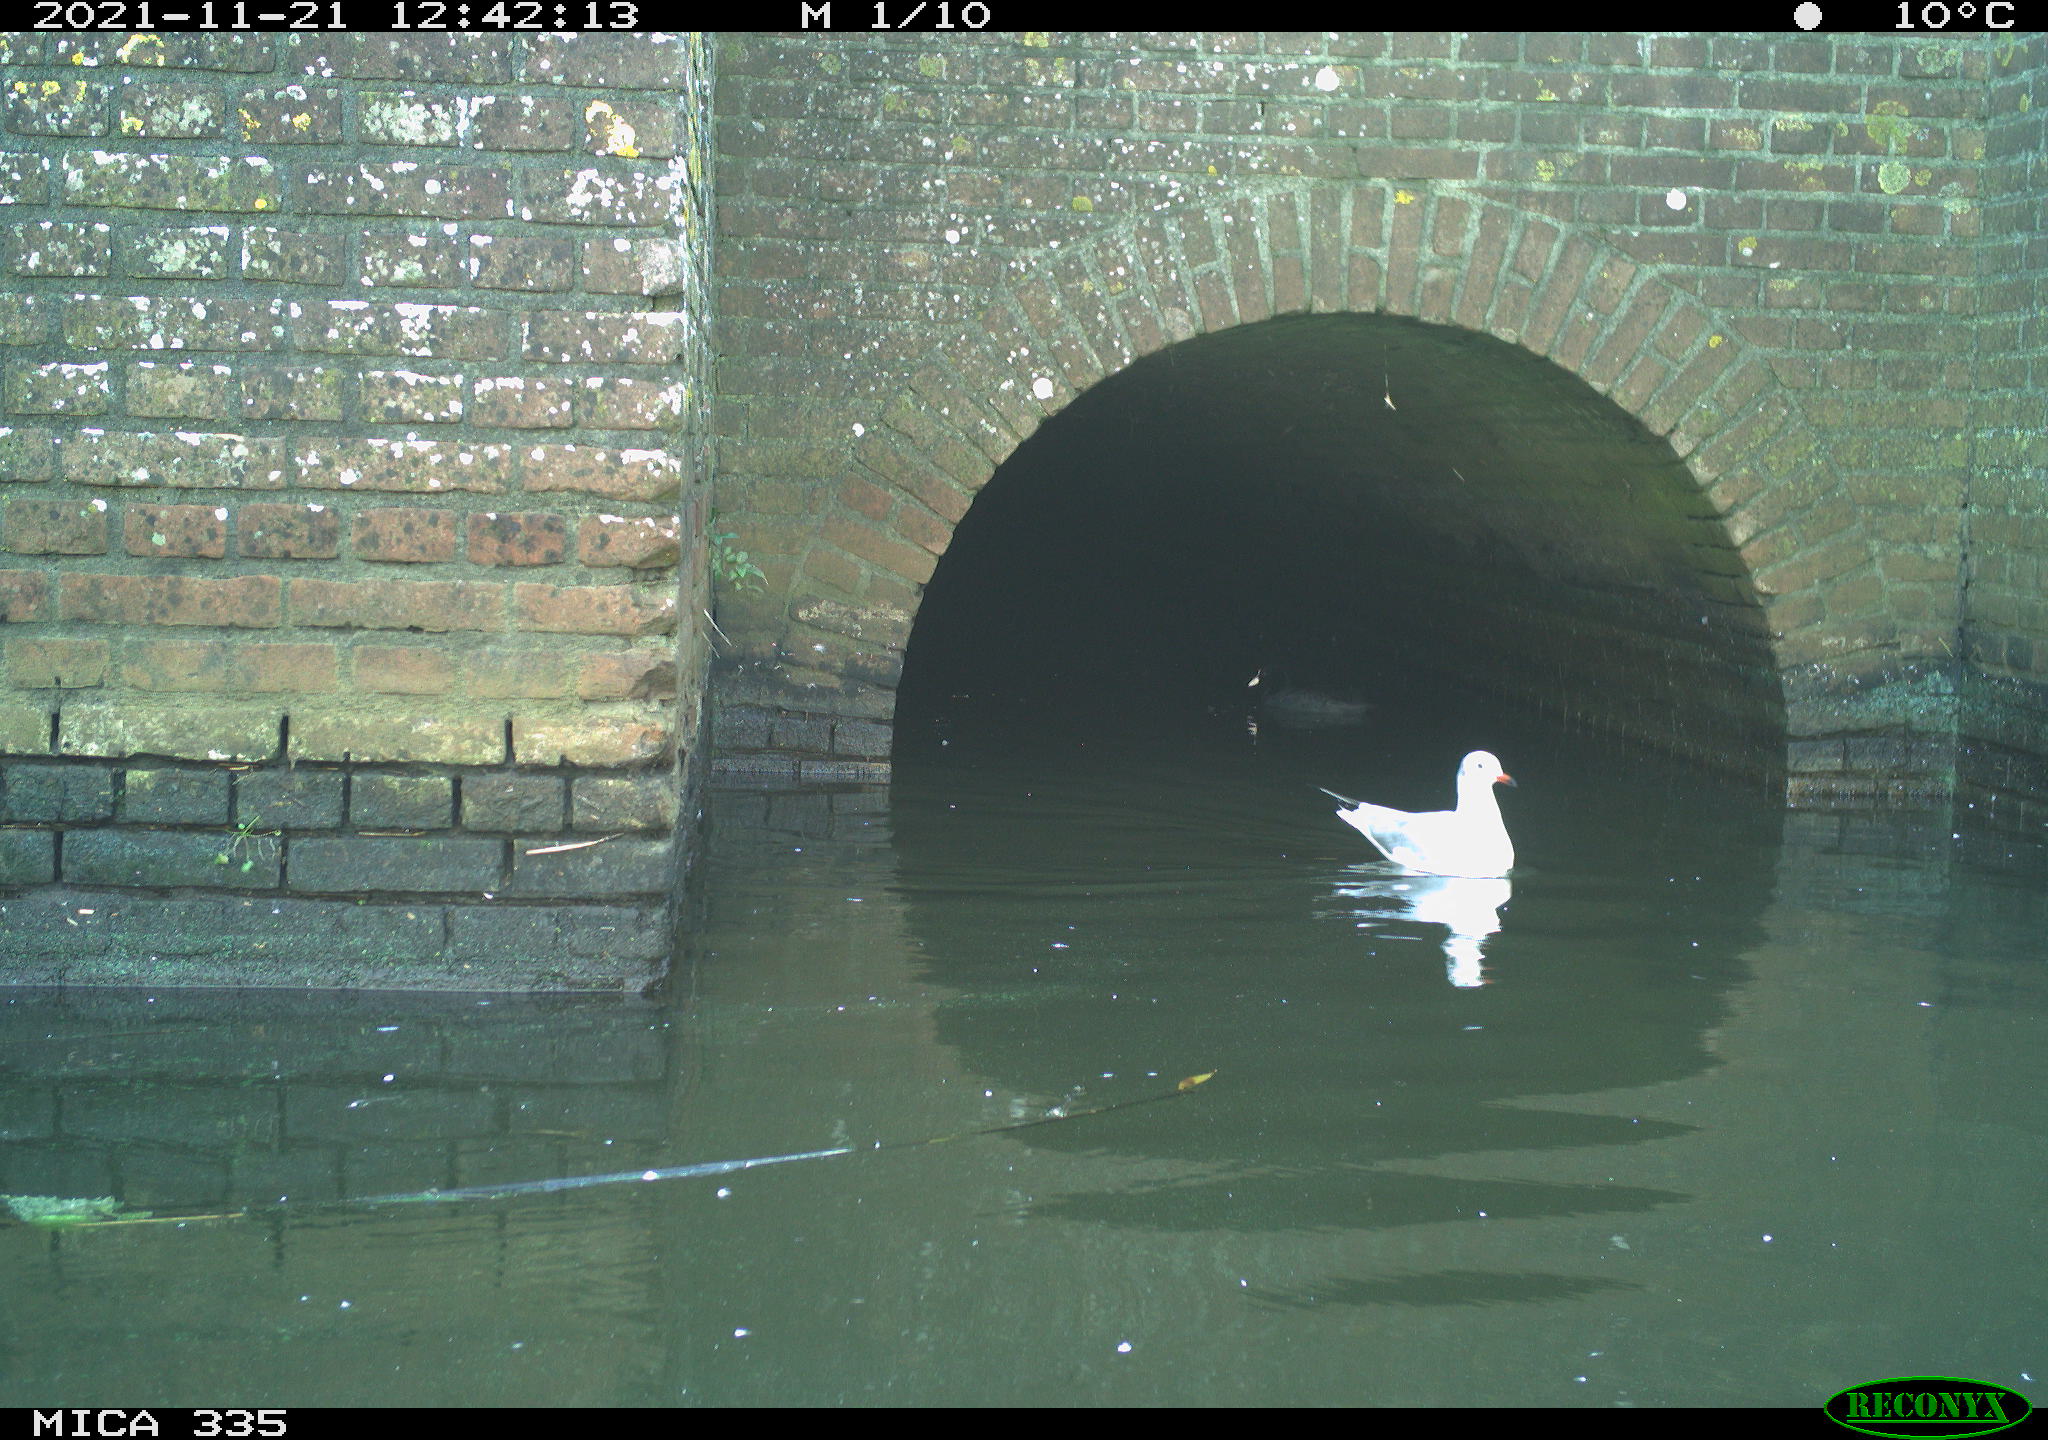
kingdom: Animalia
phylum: Chordata
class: Aves
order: Gruiformes
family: Rallidae
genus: Fulica
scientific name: Fulica atra
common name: Eurasian coot
